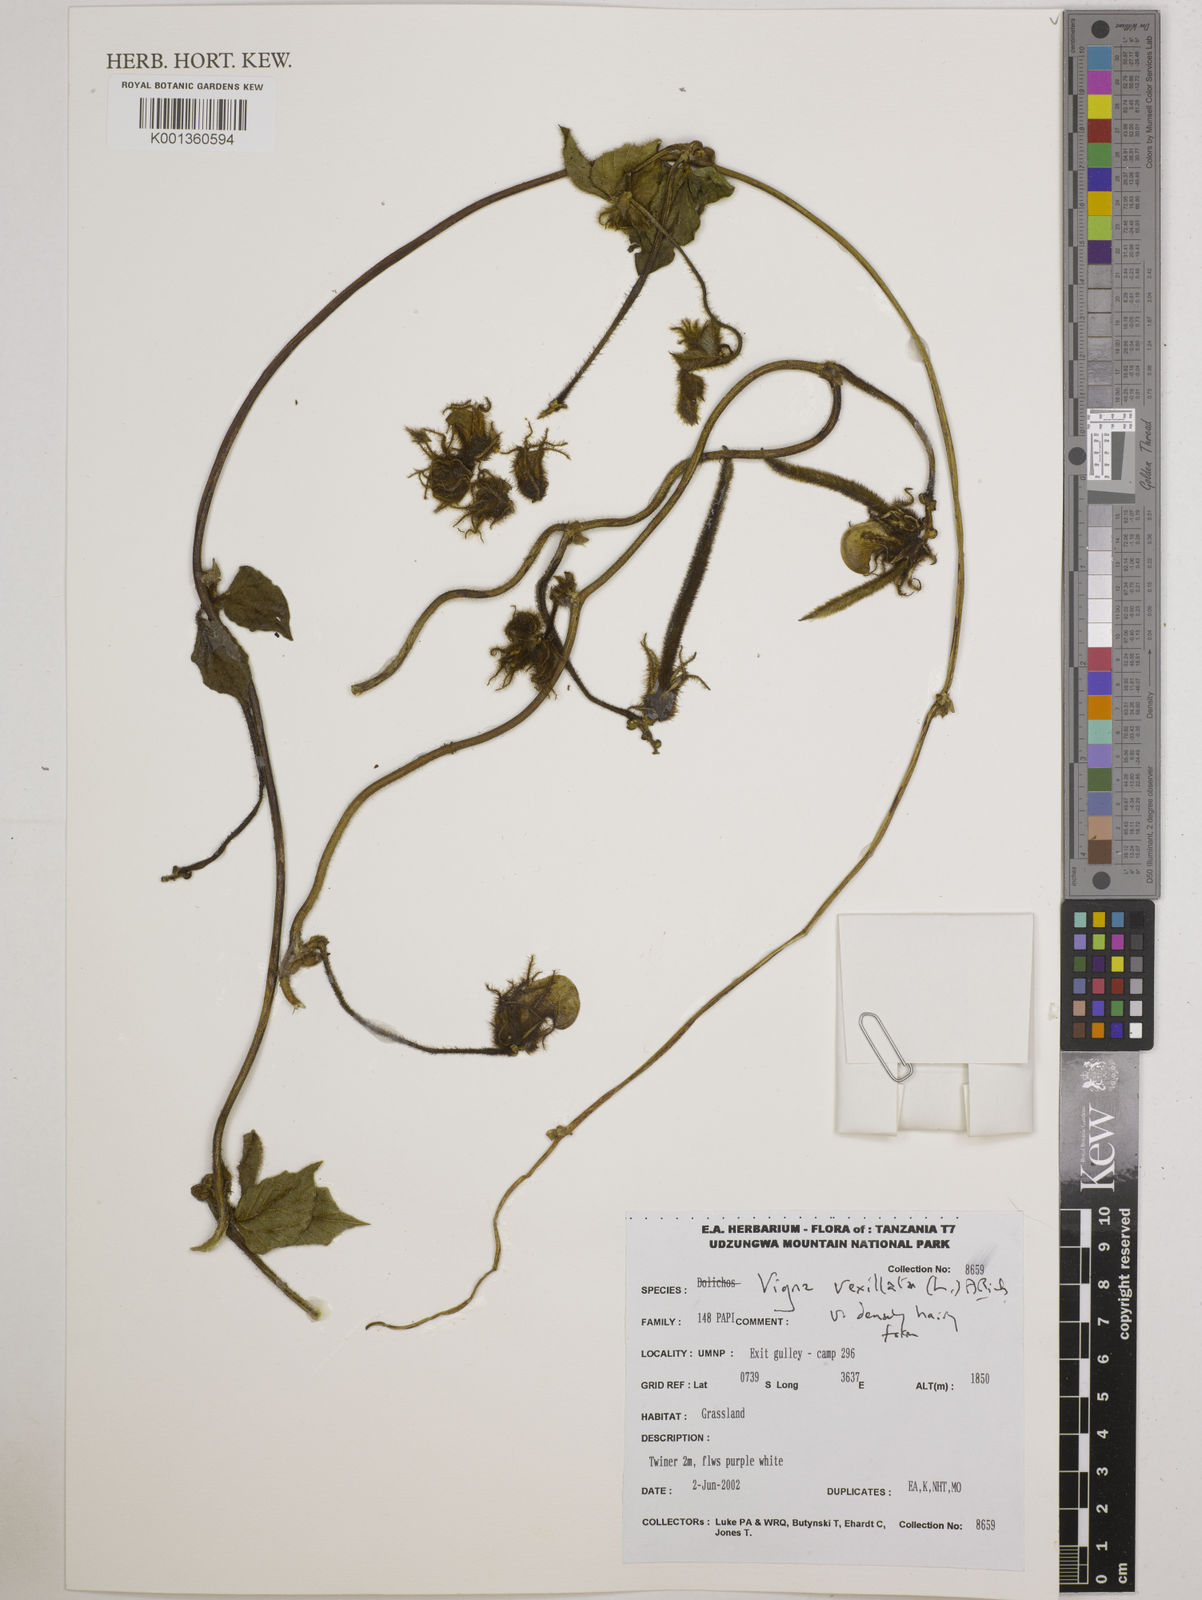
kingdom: Plantae
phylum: Tracheophyta
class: Magnoliopsida
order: Fabales
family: Fabaceae
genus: Vigna
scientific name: Vigna vexillata
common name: Zombi pea
